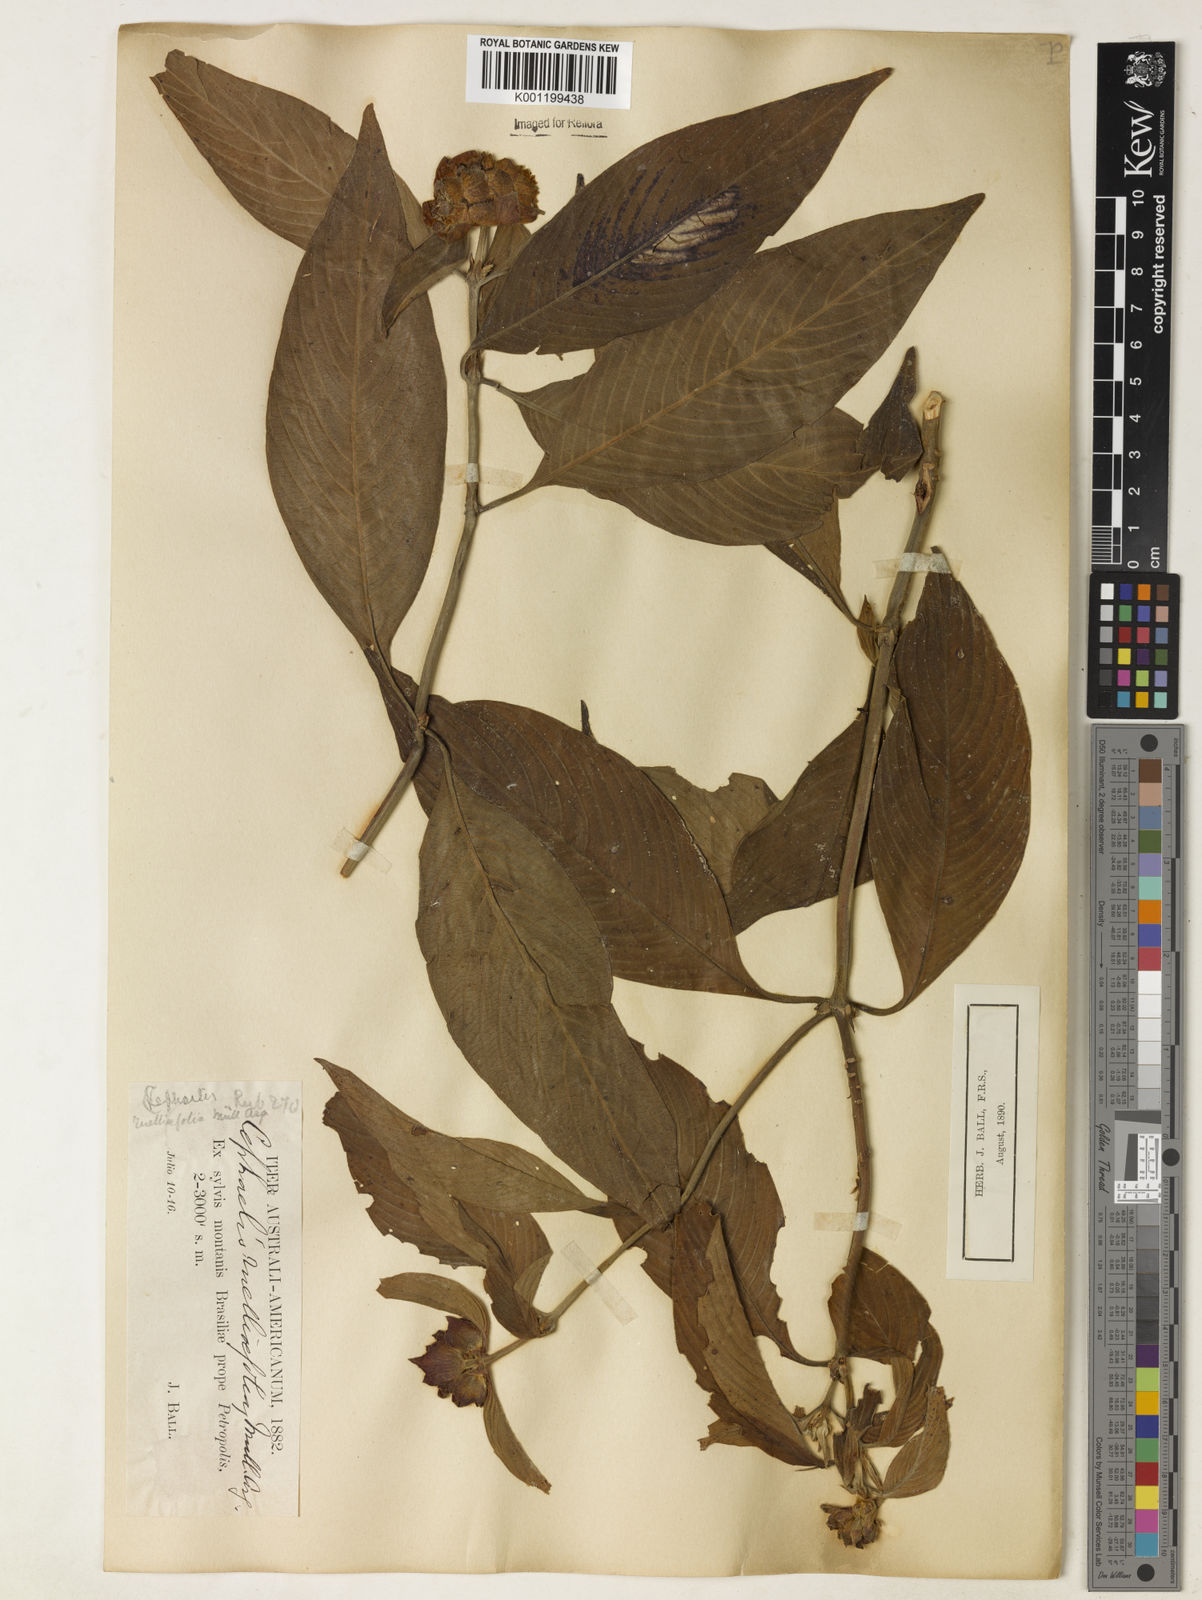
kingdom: Plantae
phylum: Tracheophyta
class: Magnoliopsida
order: Gentianales
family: Rubiaceae
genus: Psychotria
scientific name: Psychotria
